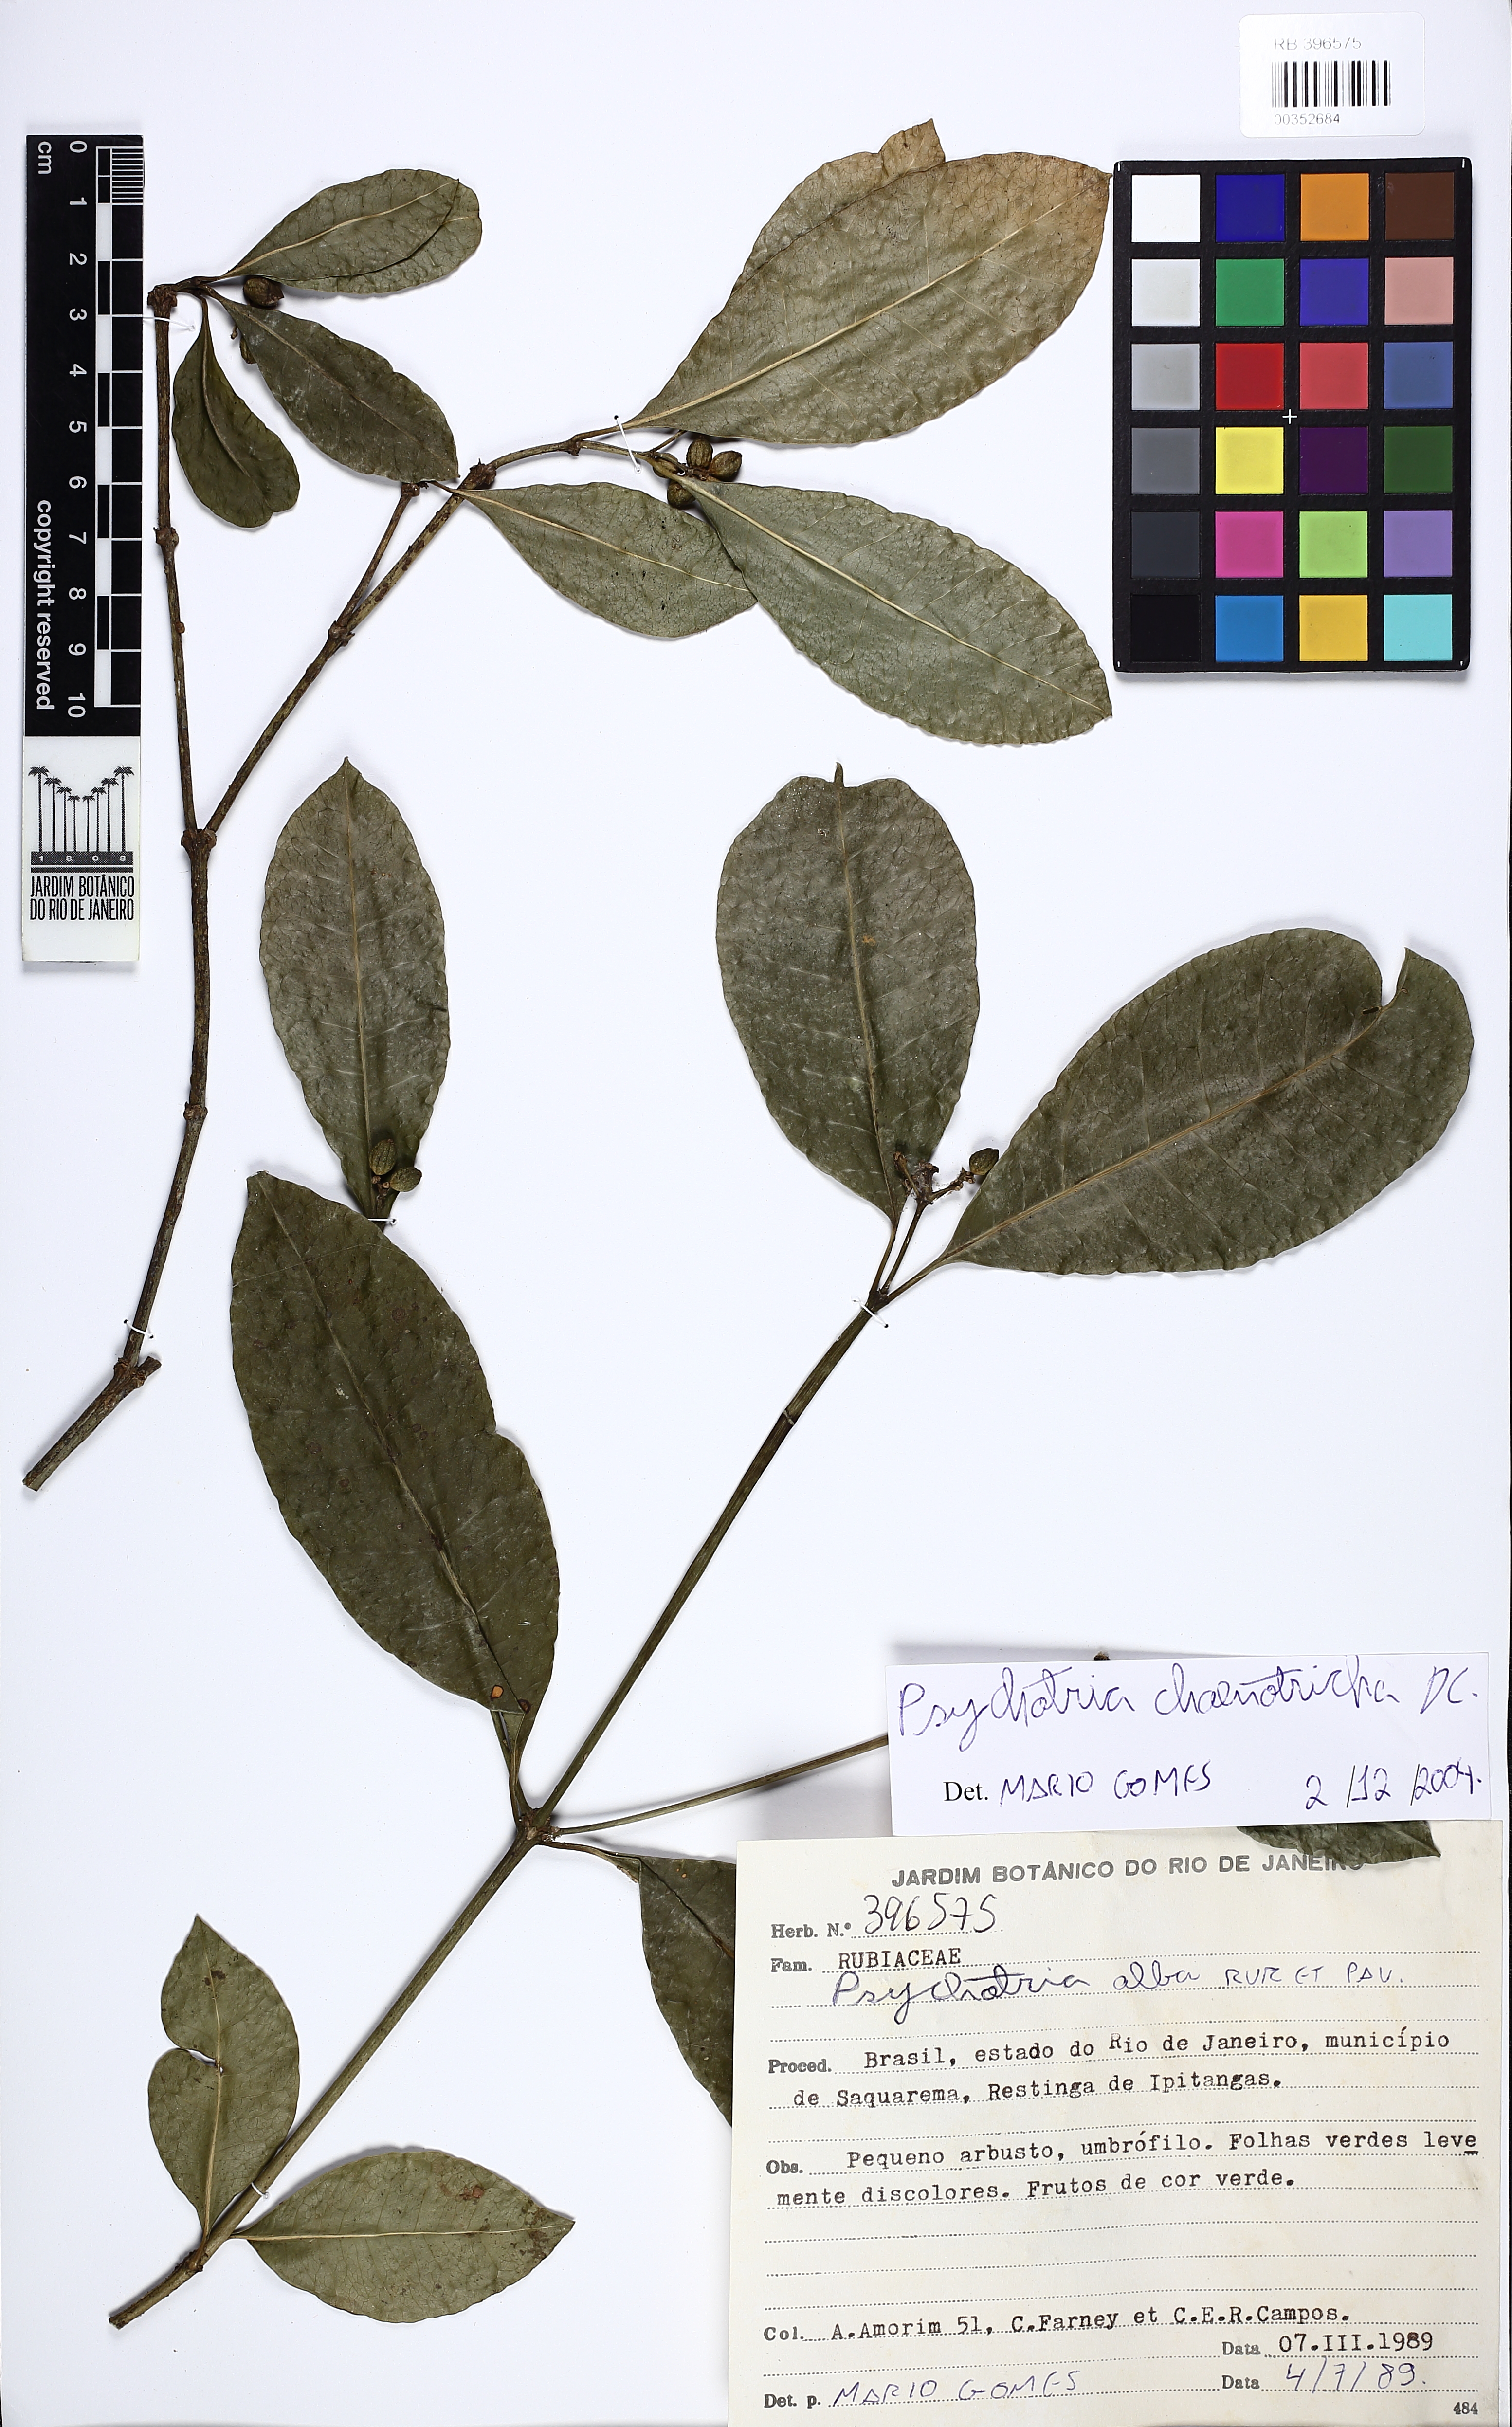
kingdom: Plantae
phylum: Tracheophyta
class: Magnoliopsida
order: Gentianales
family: Rubiaceae
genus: Eumachia
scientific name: Eumachia chaenotricha
